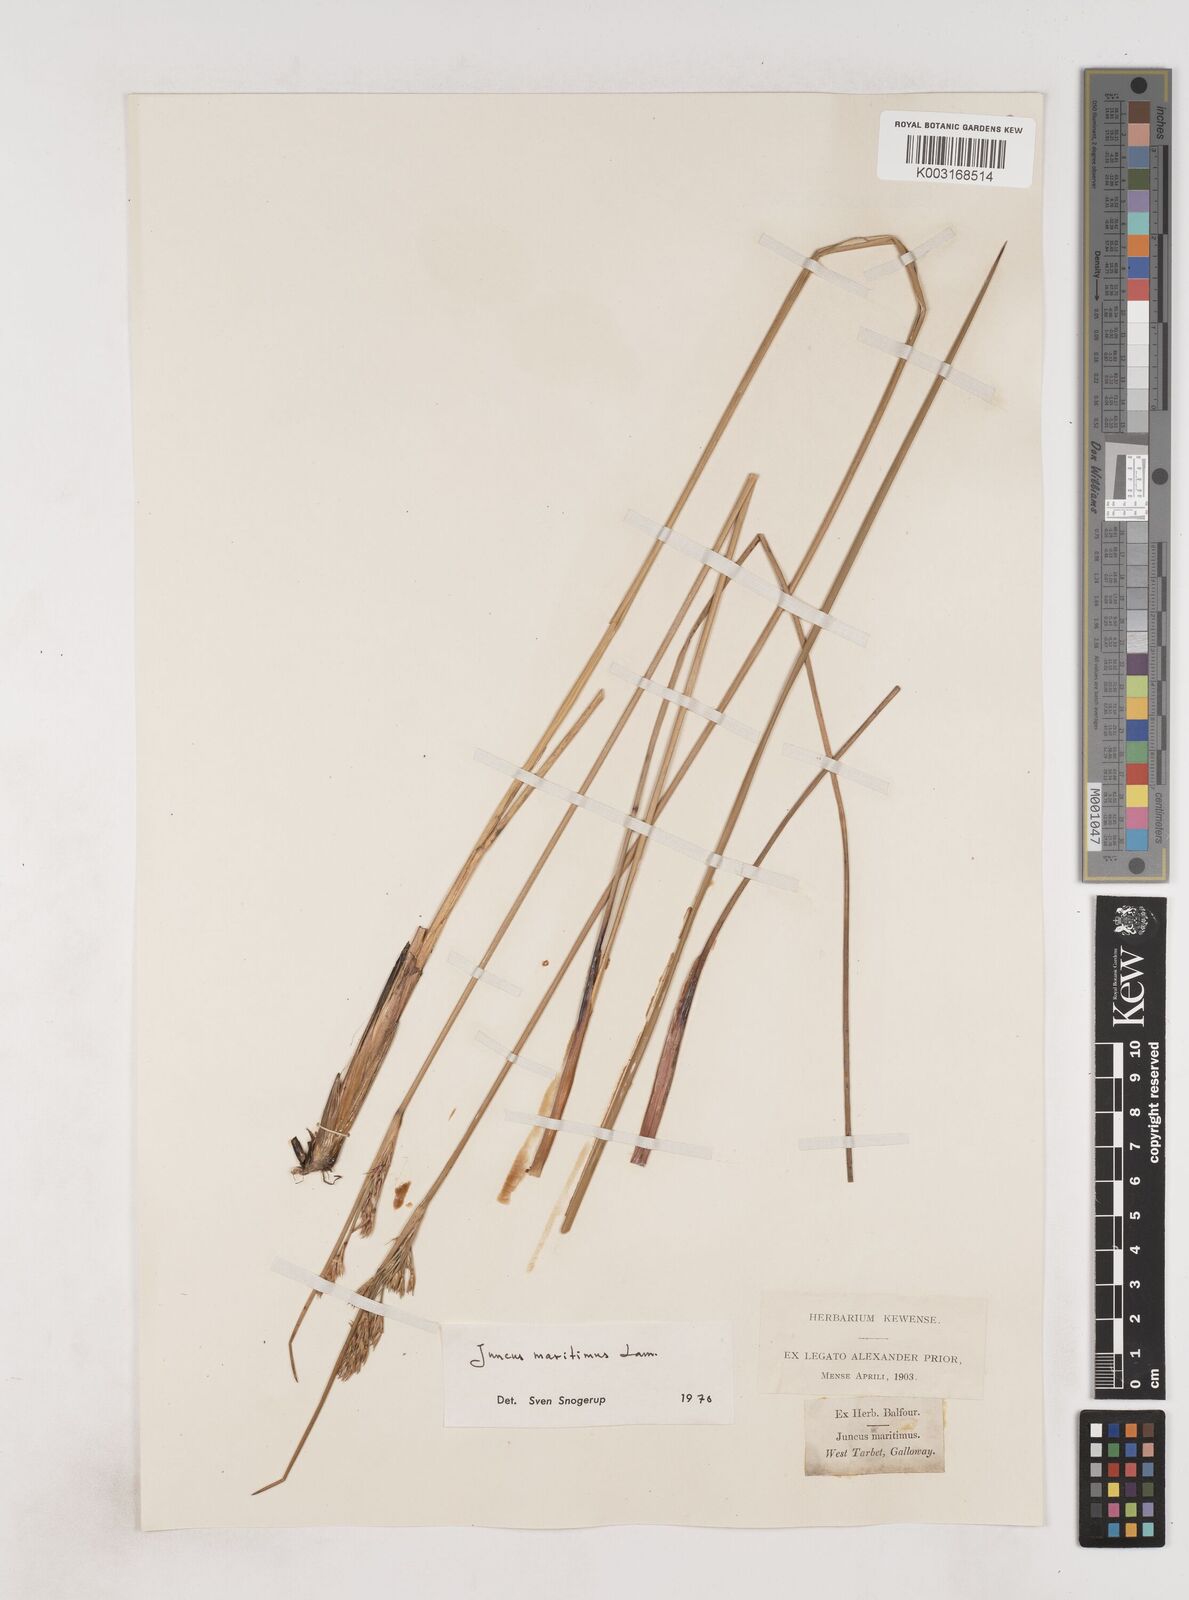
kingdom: Plantae
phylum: Tracheophyta
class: Liliopsida
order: Poales
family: Juncaceae
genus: Juncus
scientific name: Juncus maritimus
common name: Sea rush
